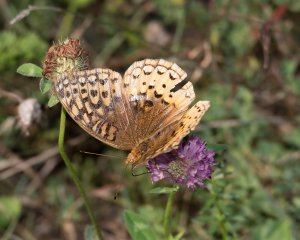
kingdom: Animalia
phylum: Arthropoda
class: Insecta
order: Lepidoptera
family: Nymphalidae
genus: Speyeria
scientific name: Speyeria cybele
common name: Great Spangled Fritillary
